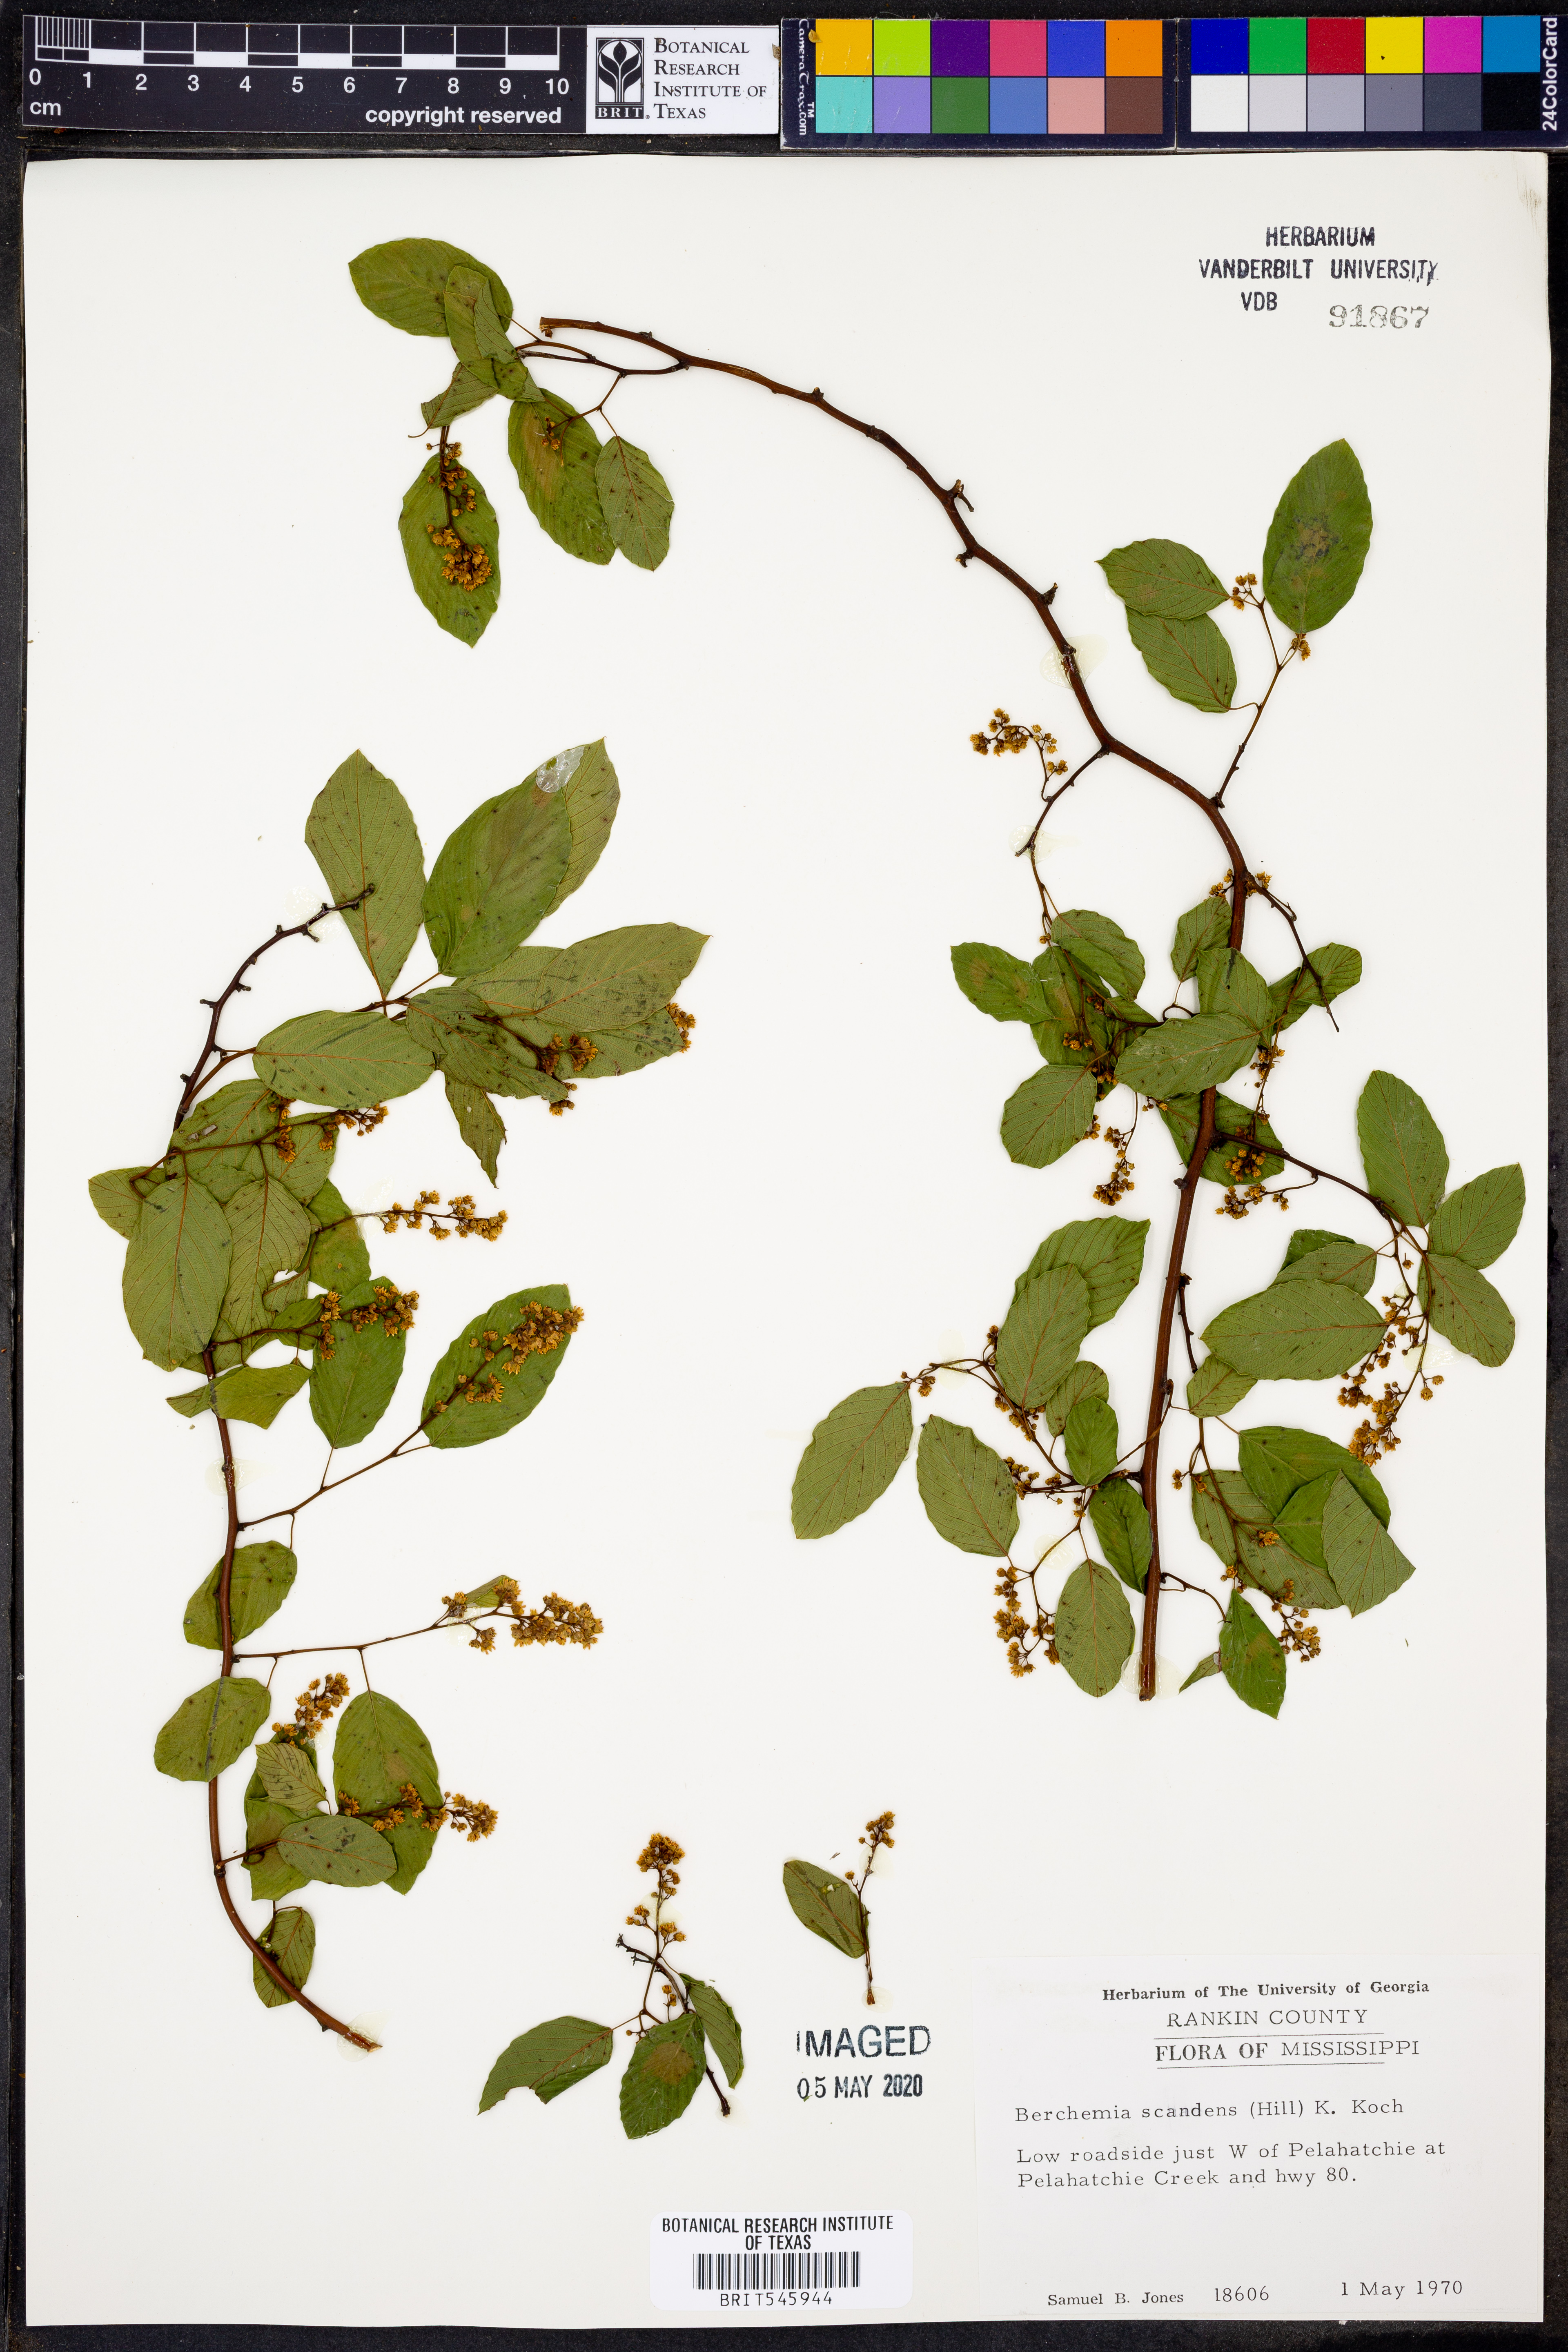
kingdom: Plantae
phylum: Tracheophyta
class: Magnoliopsida
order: Rosales
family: Rhamnaceae
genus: Berchemia
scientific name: Berchemia scandens
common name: Supplejack
